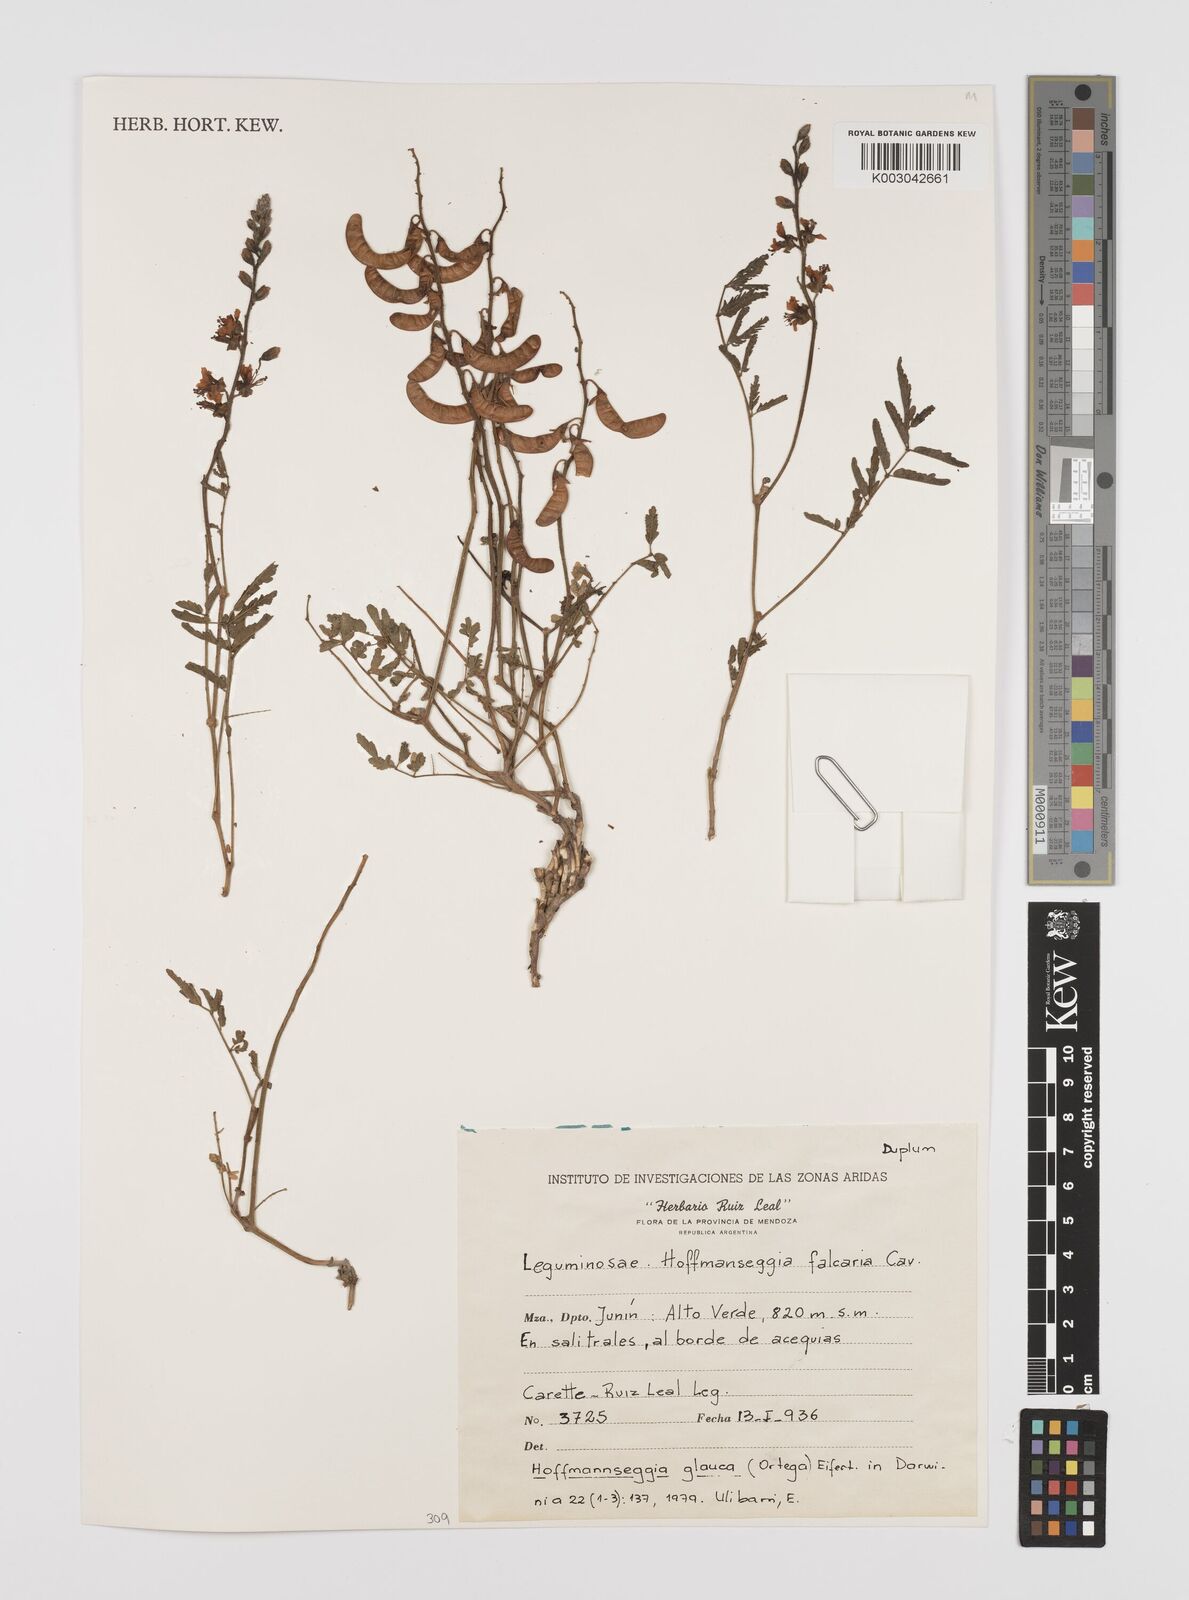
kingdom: Plantae
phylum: Tracheophyta
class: Magnoliopsida
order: Fabales
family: Fabaceae
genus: Hoffmannseggia
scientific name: Hoffmannseggia glauca
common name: Pignut
